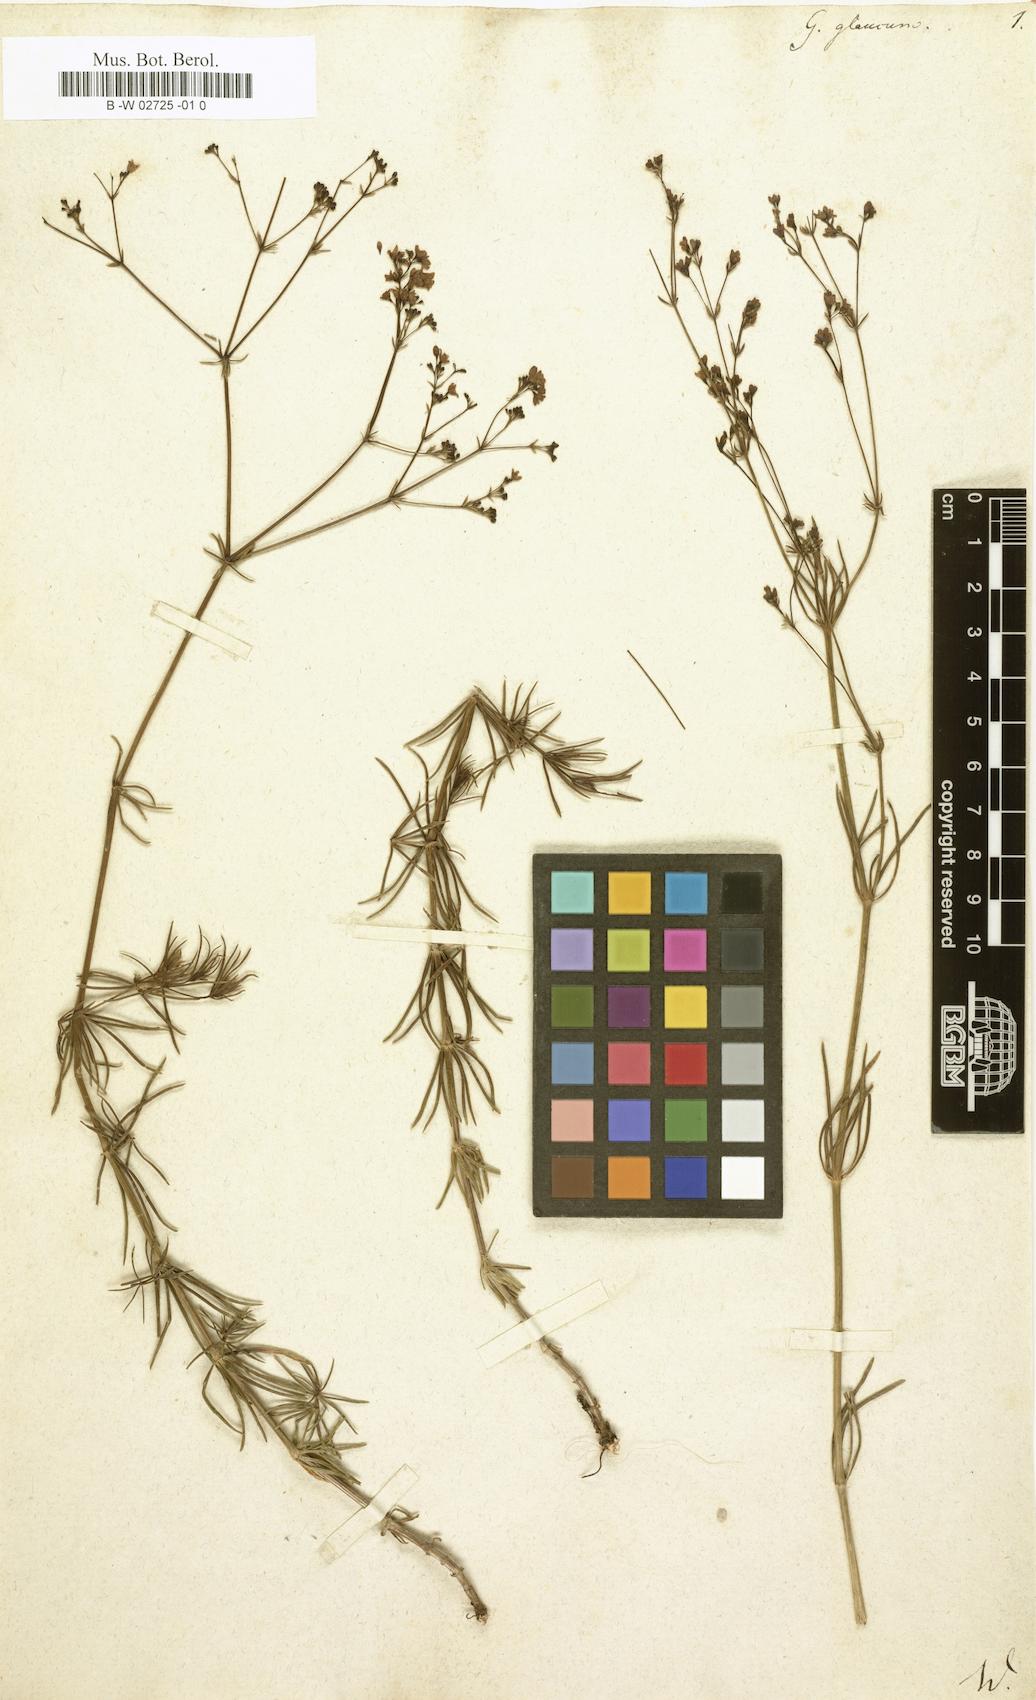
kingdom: Plantae
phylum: Tracheophyta
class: Magnoliopsida
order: Gentianales
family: Rubiaceae
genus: Galium
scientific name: Galium glaucum
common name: Waxy bedstraw
